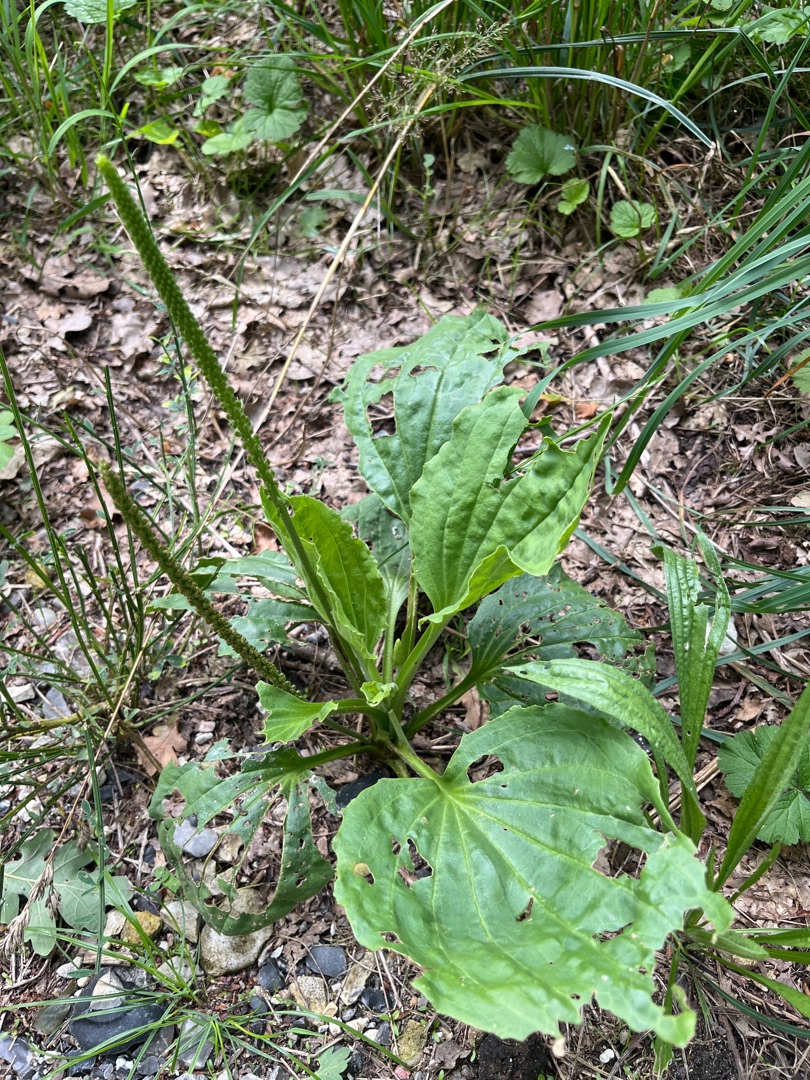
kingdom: Plantae
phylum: Tracheophyta
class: Magnoliopsida
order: Lamiales
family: Plantaginaceae
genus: Plantago
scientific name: Plantago major
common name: Glat vejbred
